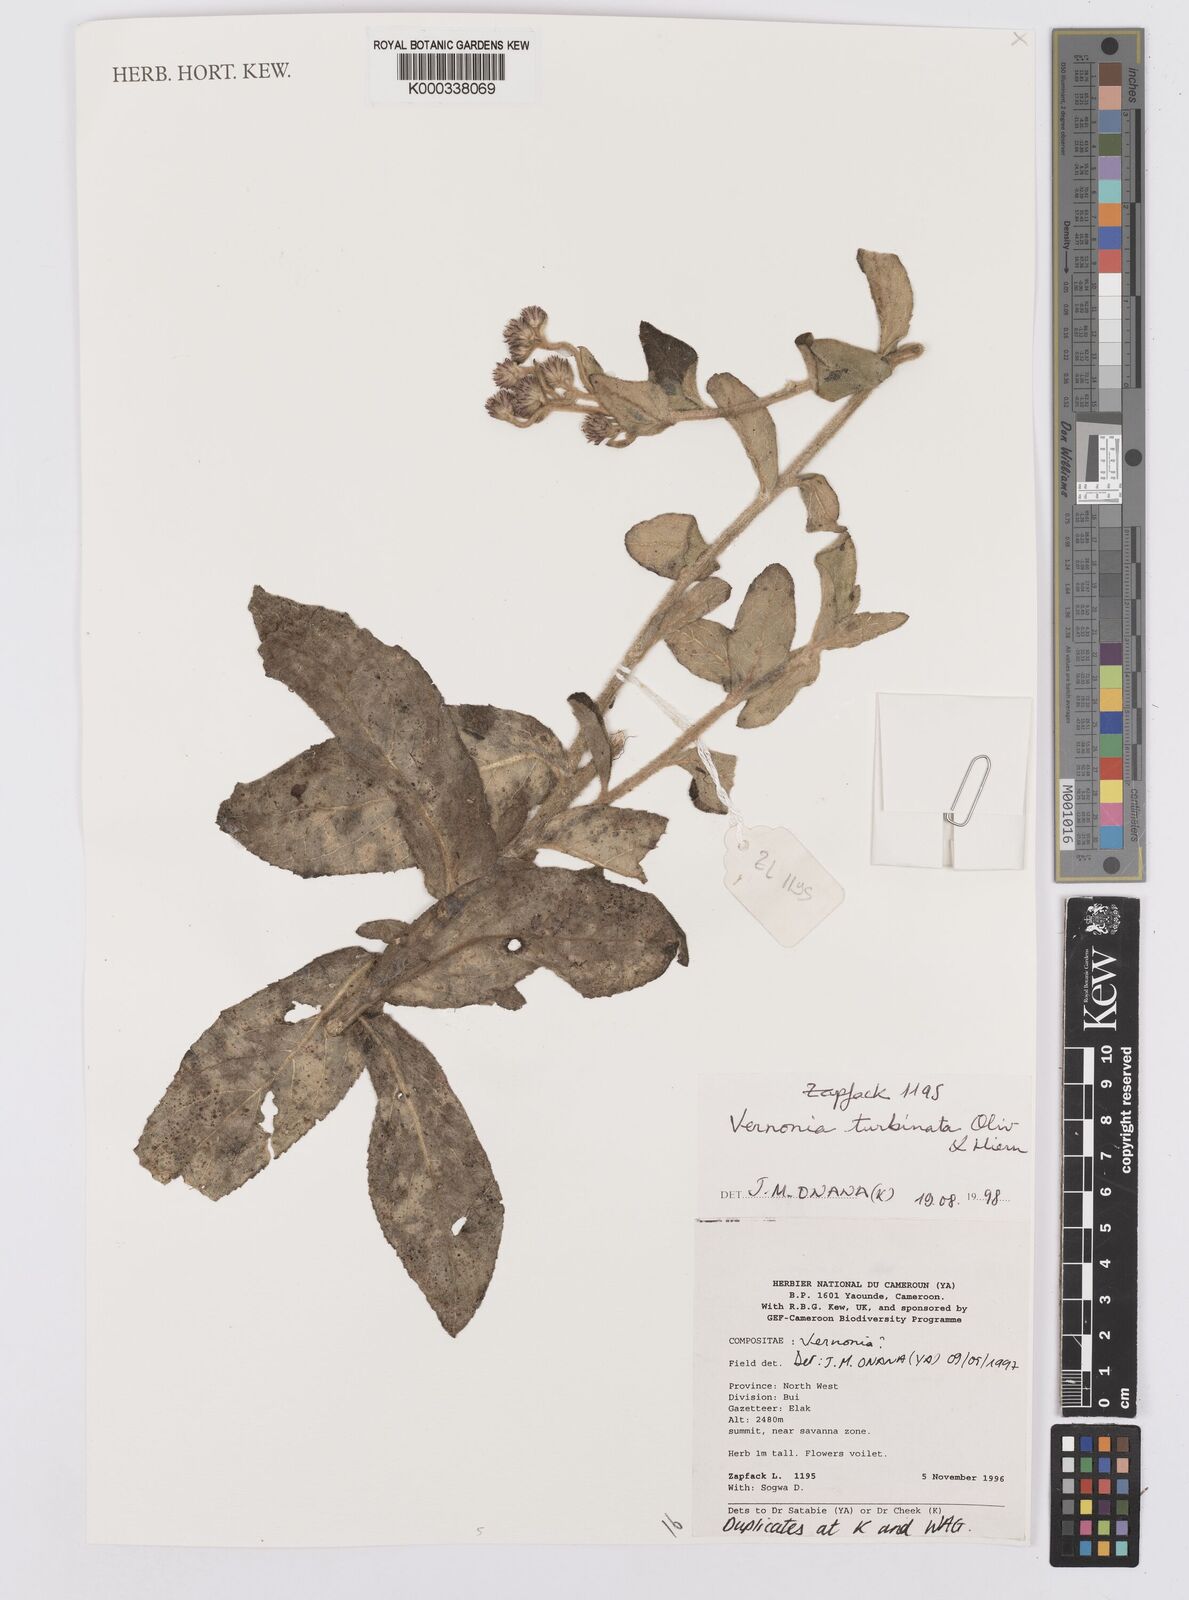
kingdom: Plantae
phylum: Tracheophyta
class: Magnoliopsida
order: Asterales
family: Asteraceae
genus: Orbivestus
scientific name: Orbivestus turbinata
